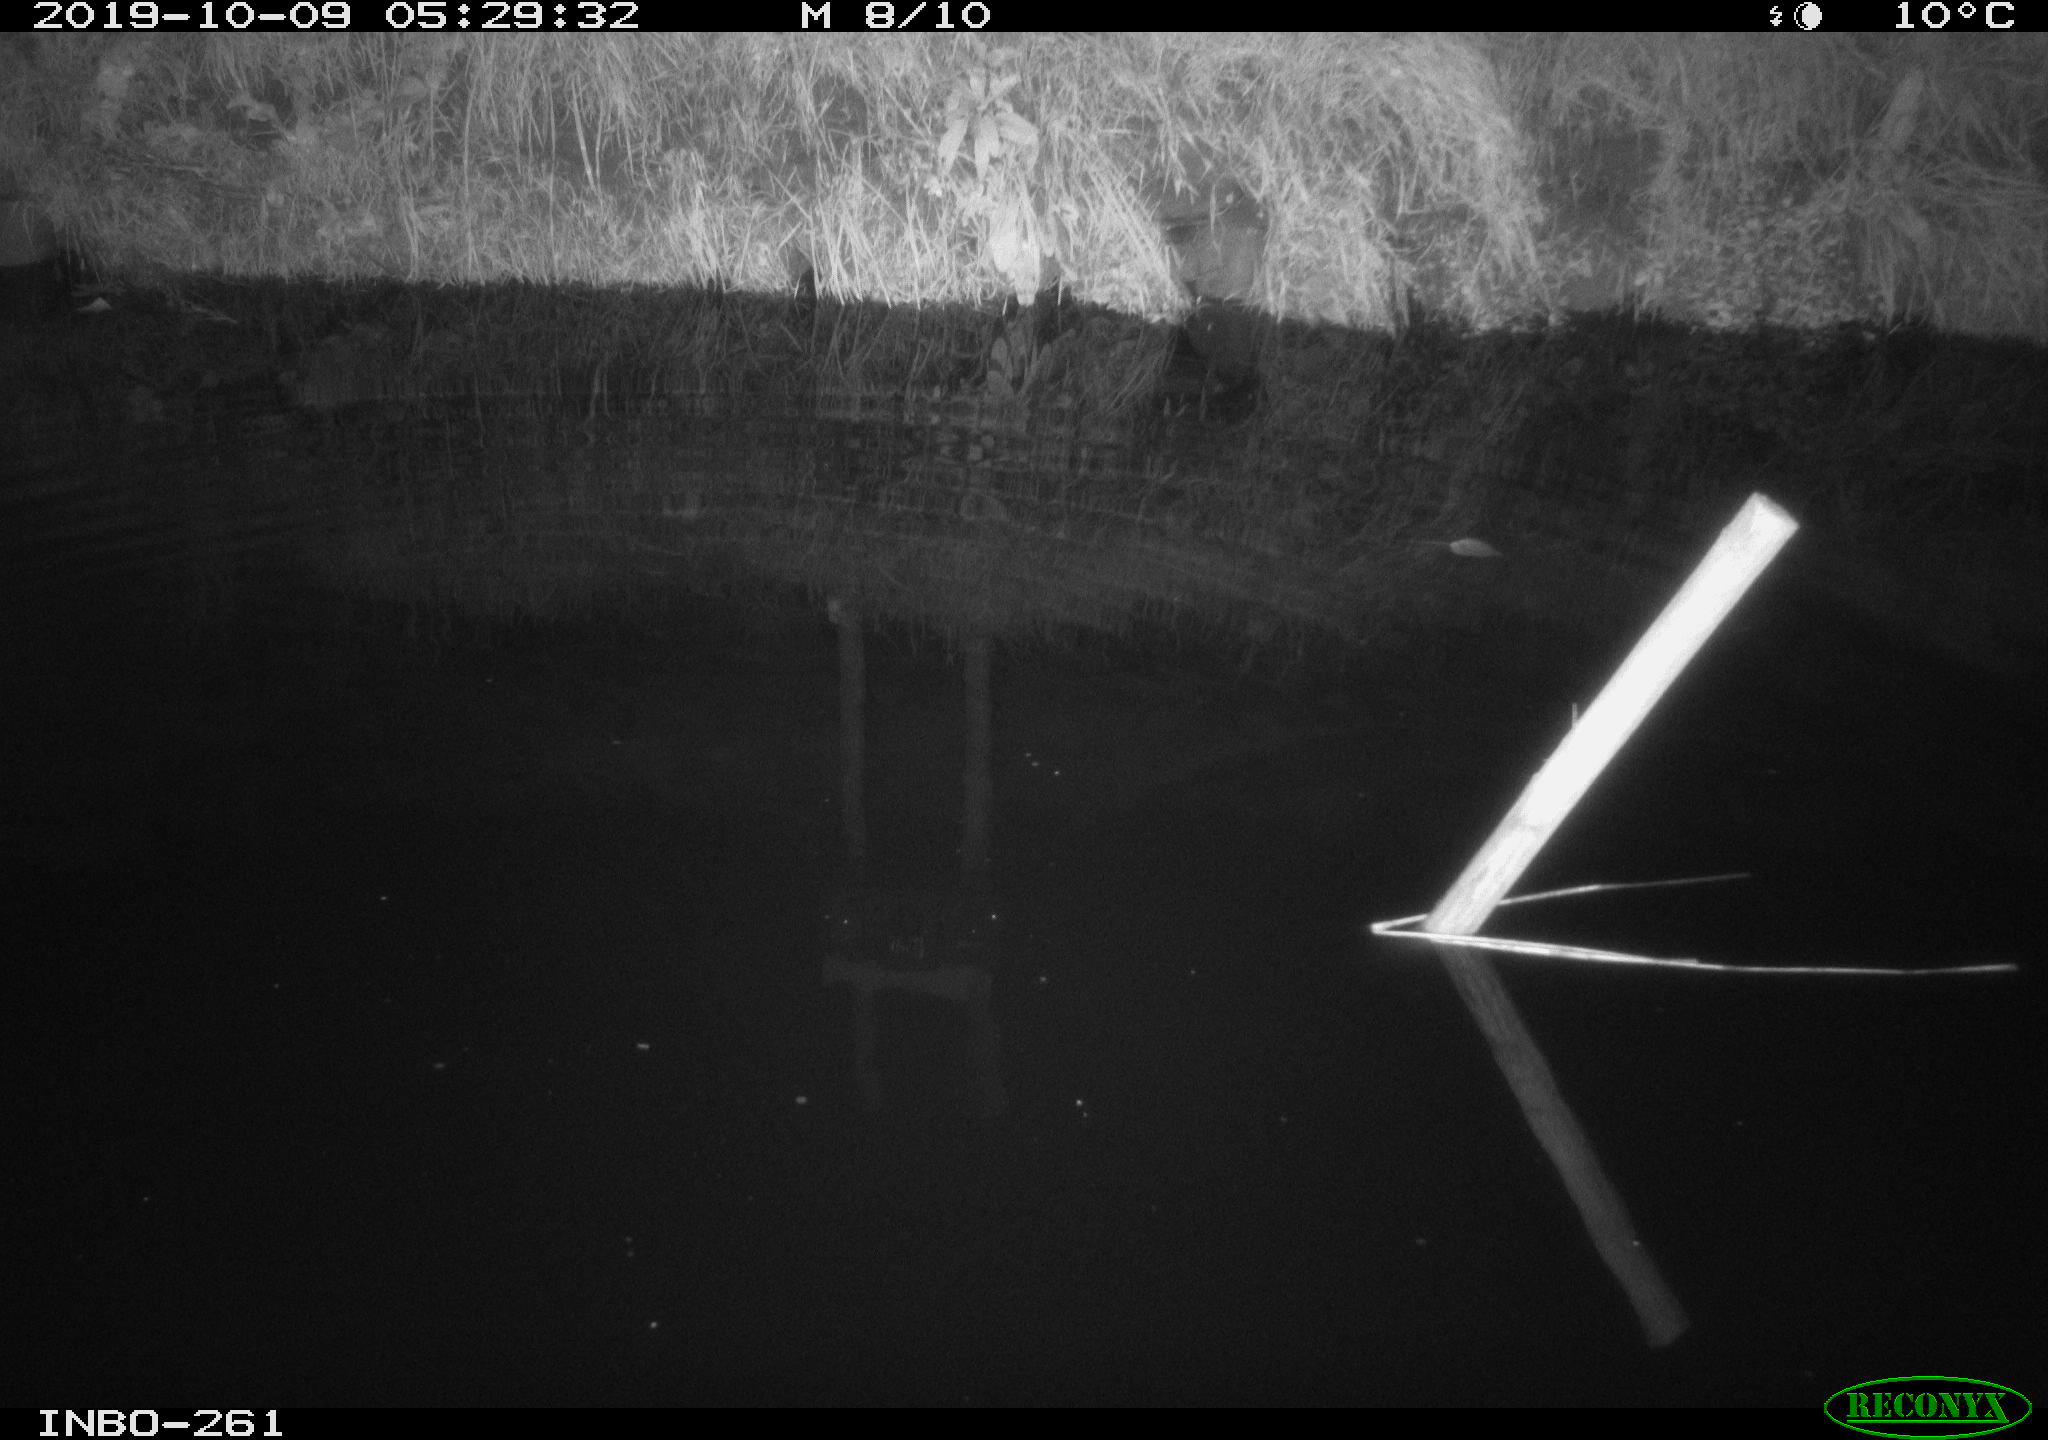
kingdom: Animalia
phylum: Chordata
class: Aves
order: Anseriformes
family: Anatidae
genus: Anas
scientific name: Anas platyrhynchos
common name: Mallard
